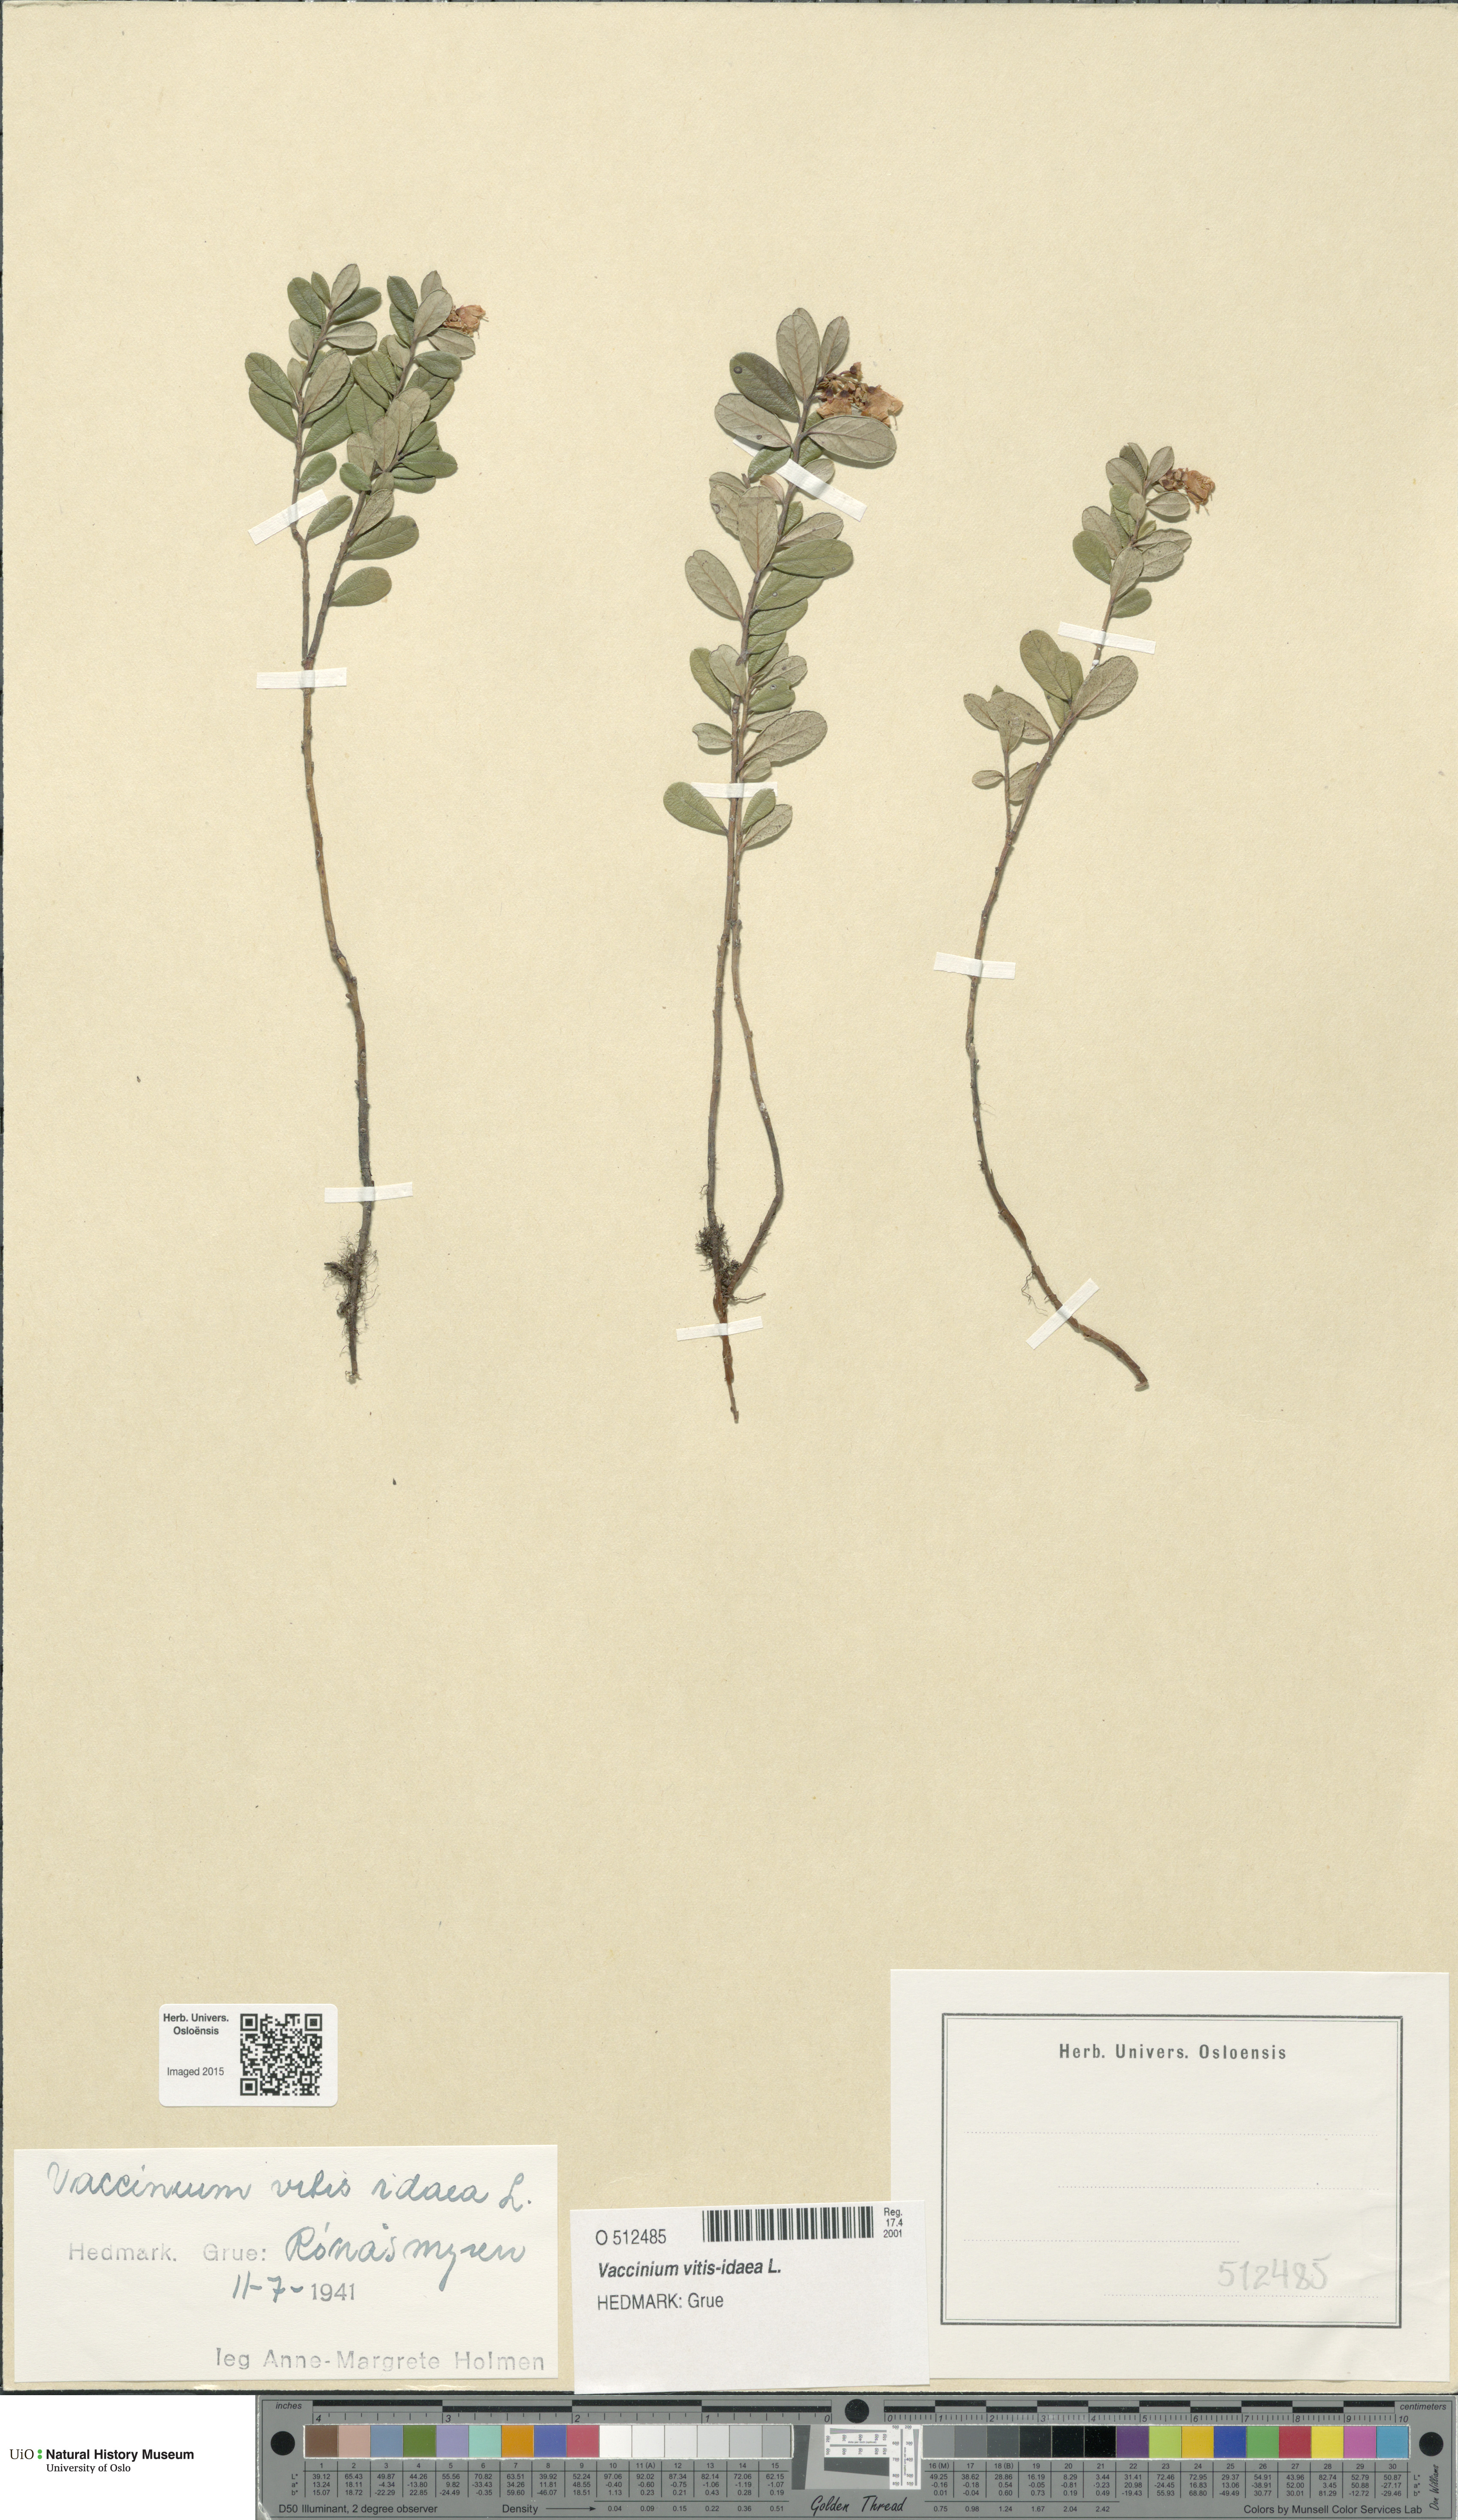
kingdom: Plantae
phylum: Tracheophyta
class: Magnoliopsida
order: Ericales
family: Ericaceae
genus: Vaccinium
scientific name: Vaccinium vitis-idaea
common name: Cowberry
